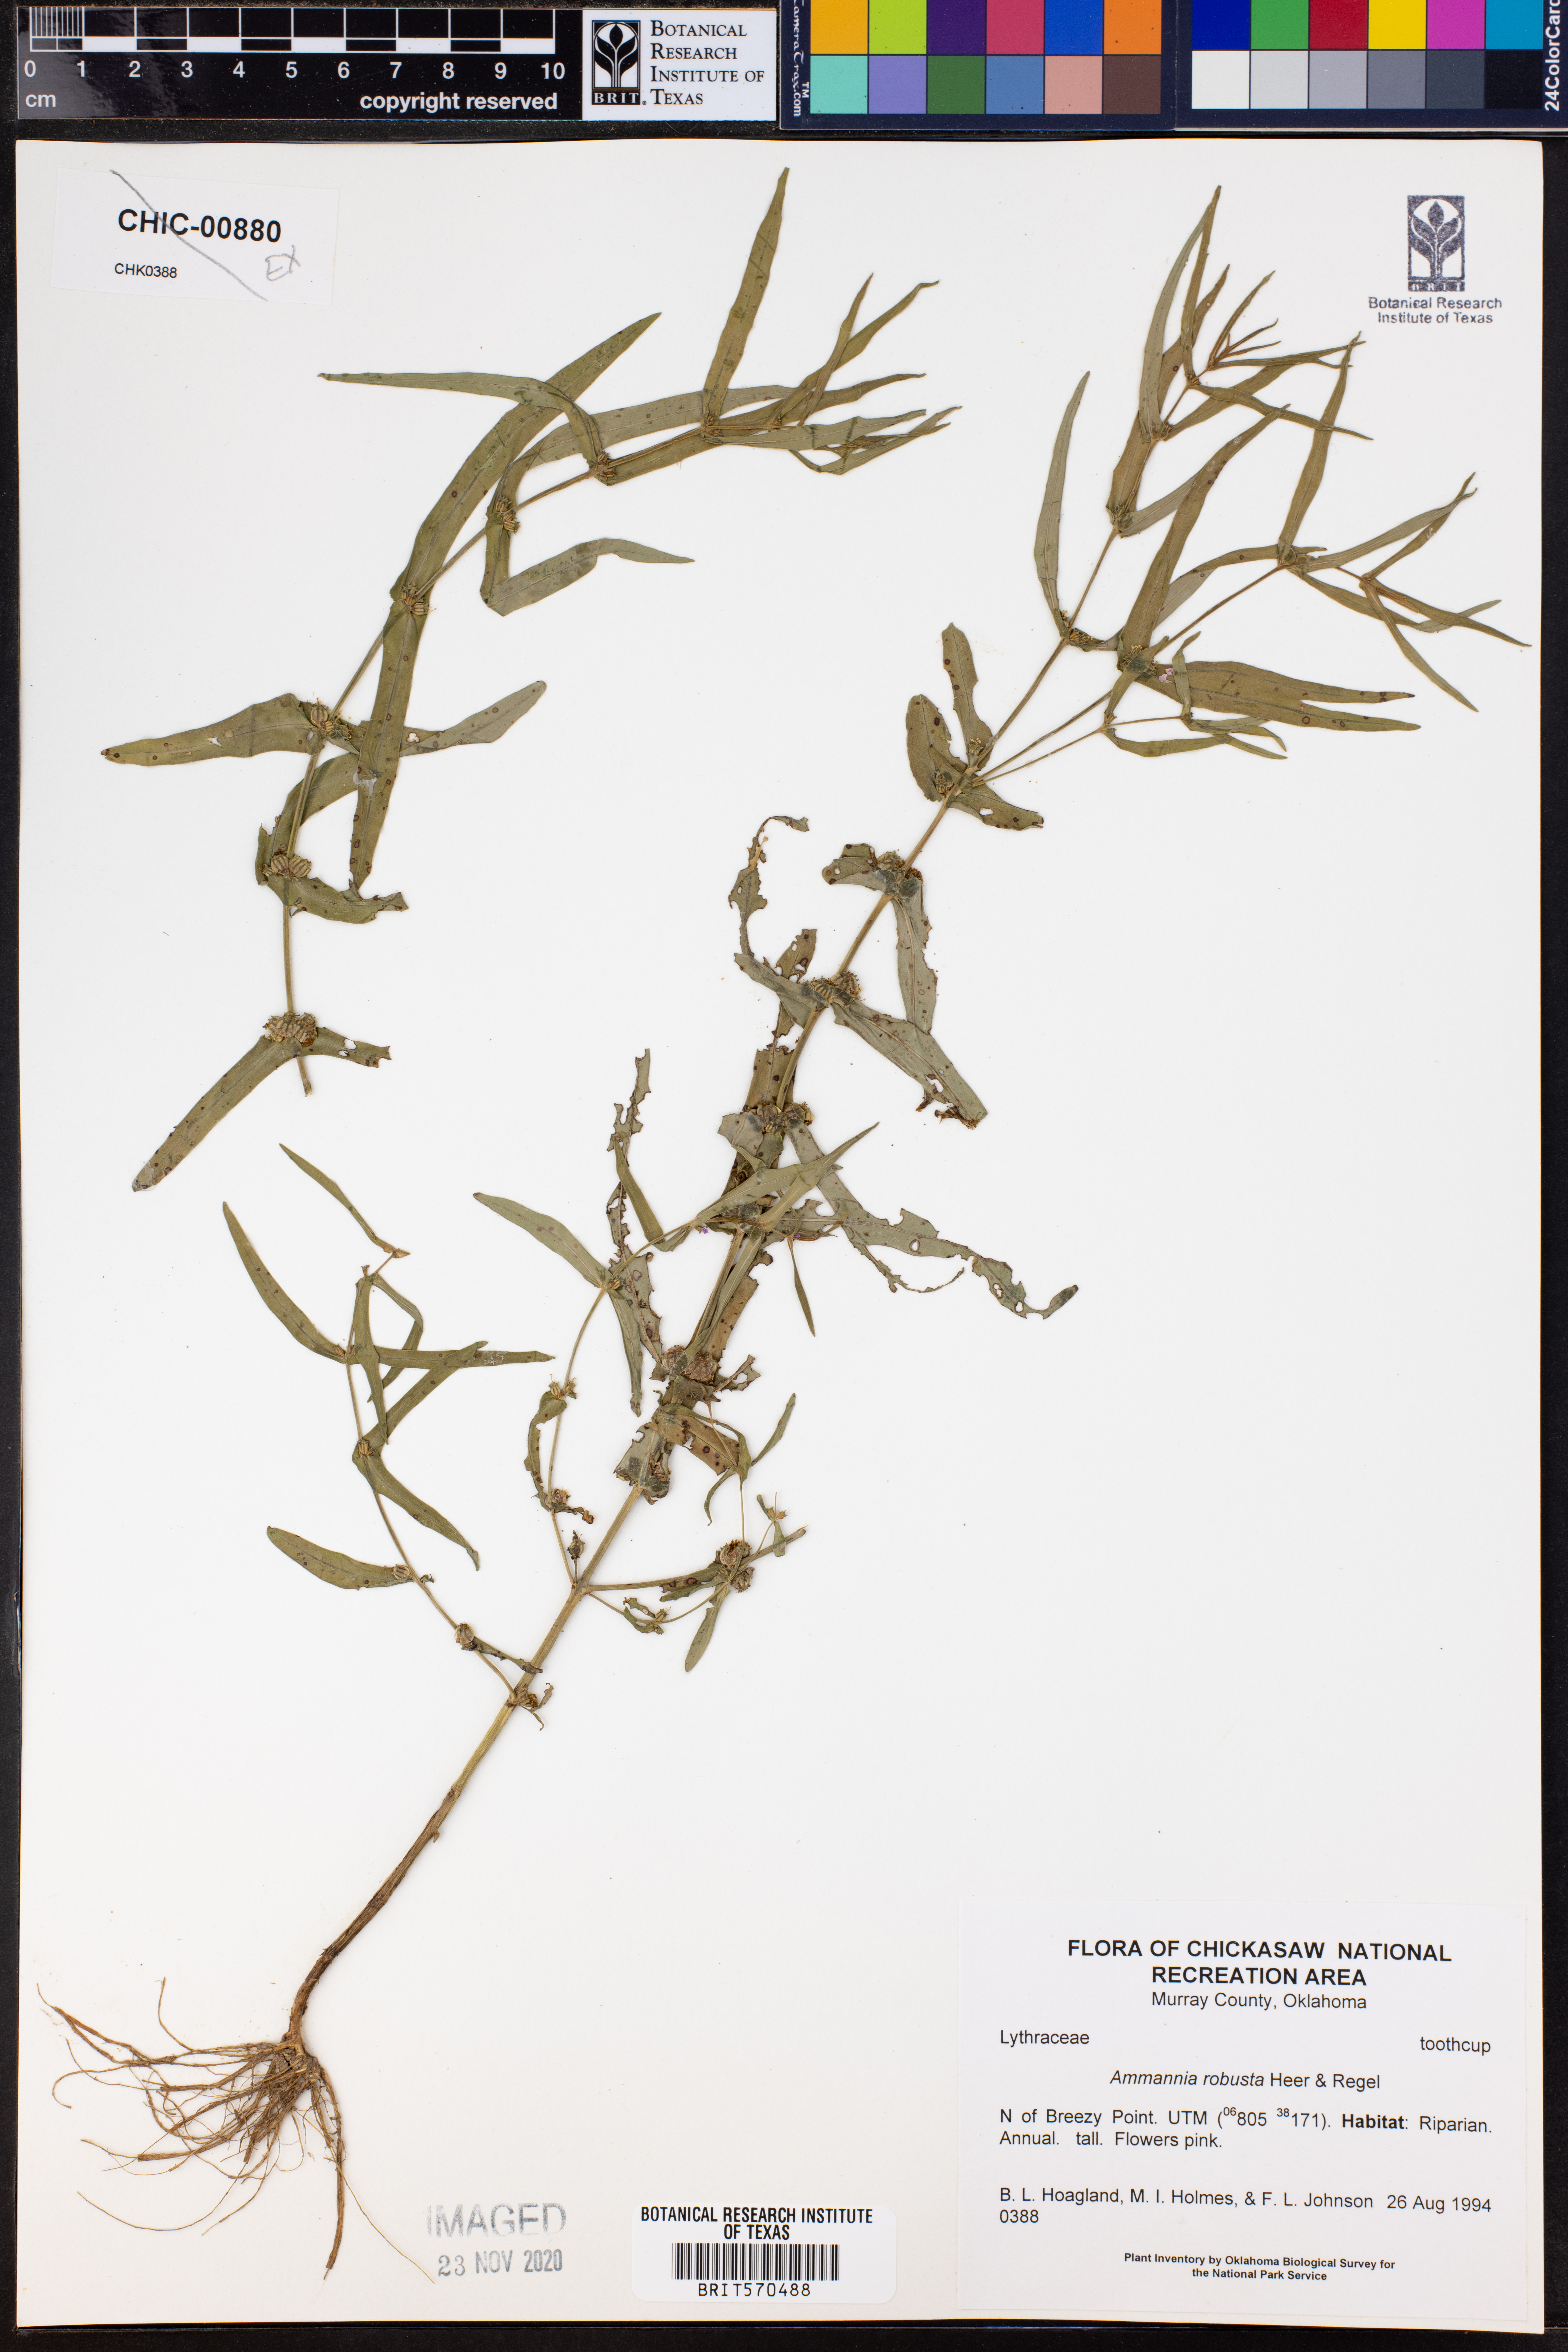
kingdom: Plantae
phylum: Tracheophyta
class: Magnoliopsida
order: Myrtales
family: Lythraceae
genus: Ammannia
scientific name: Ammannia robusta
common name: Grand ammannia
